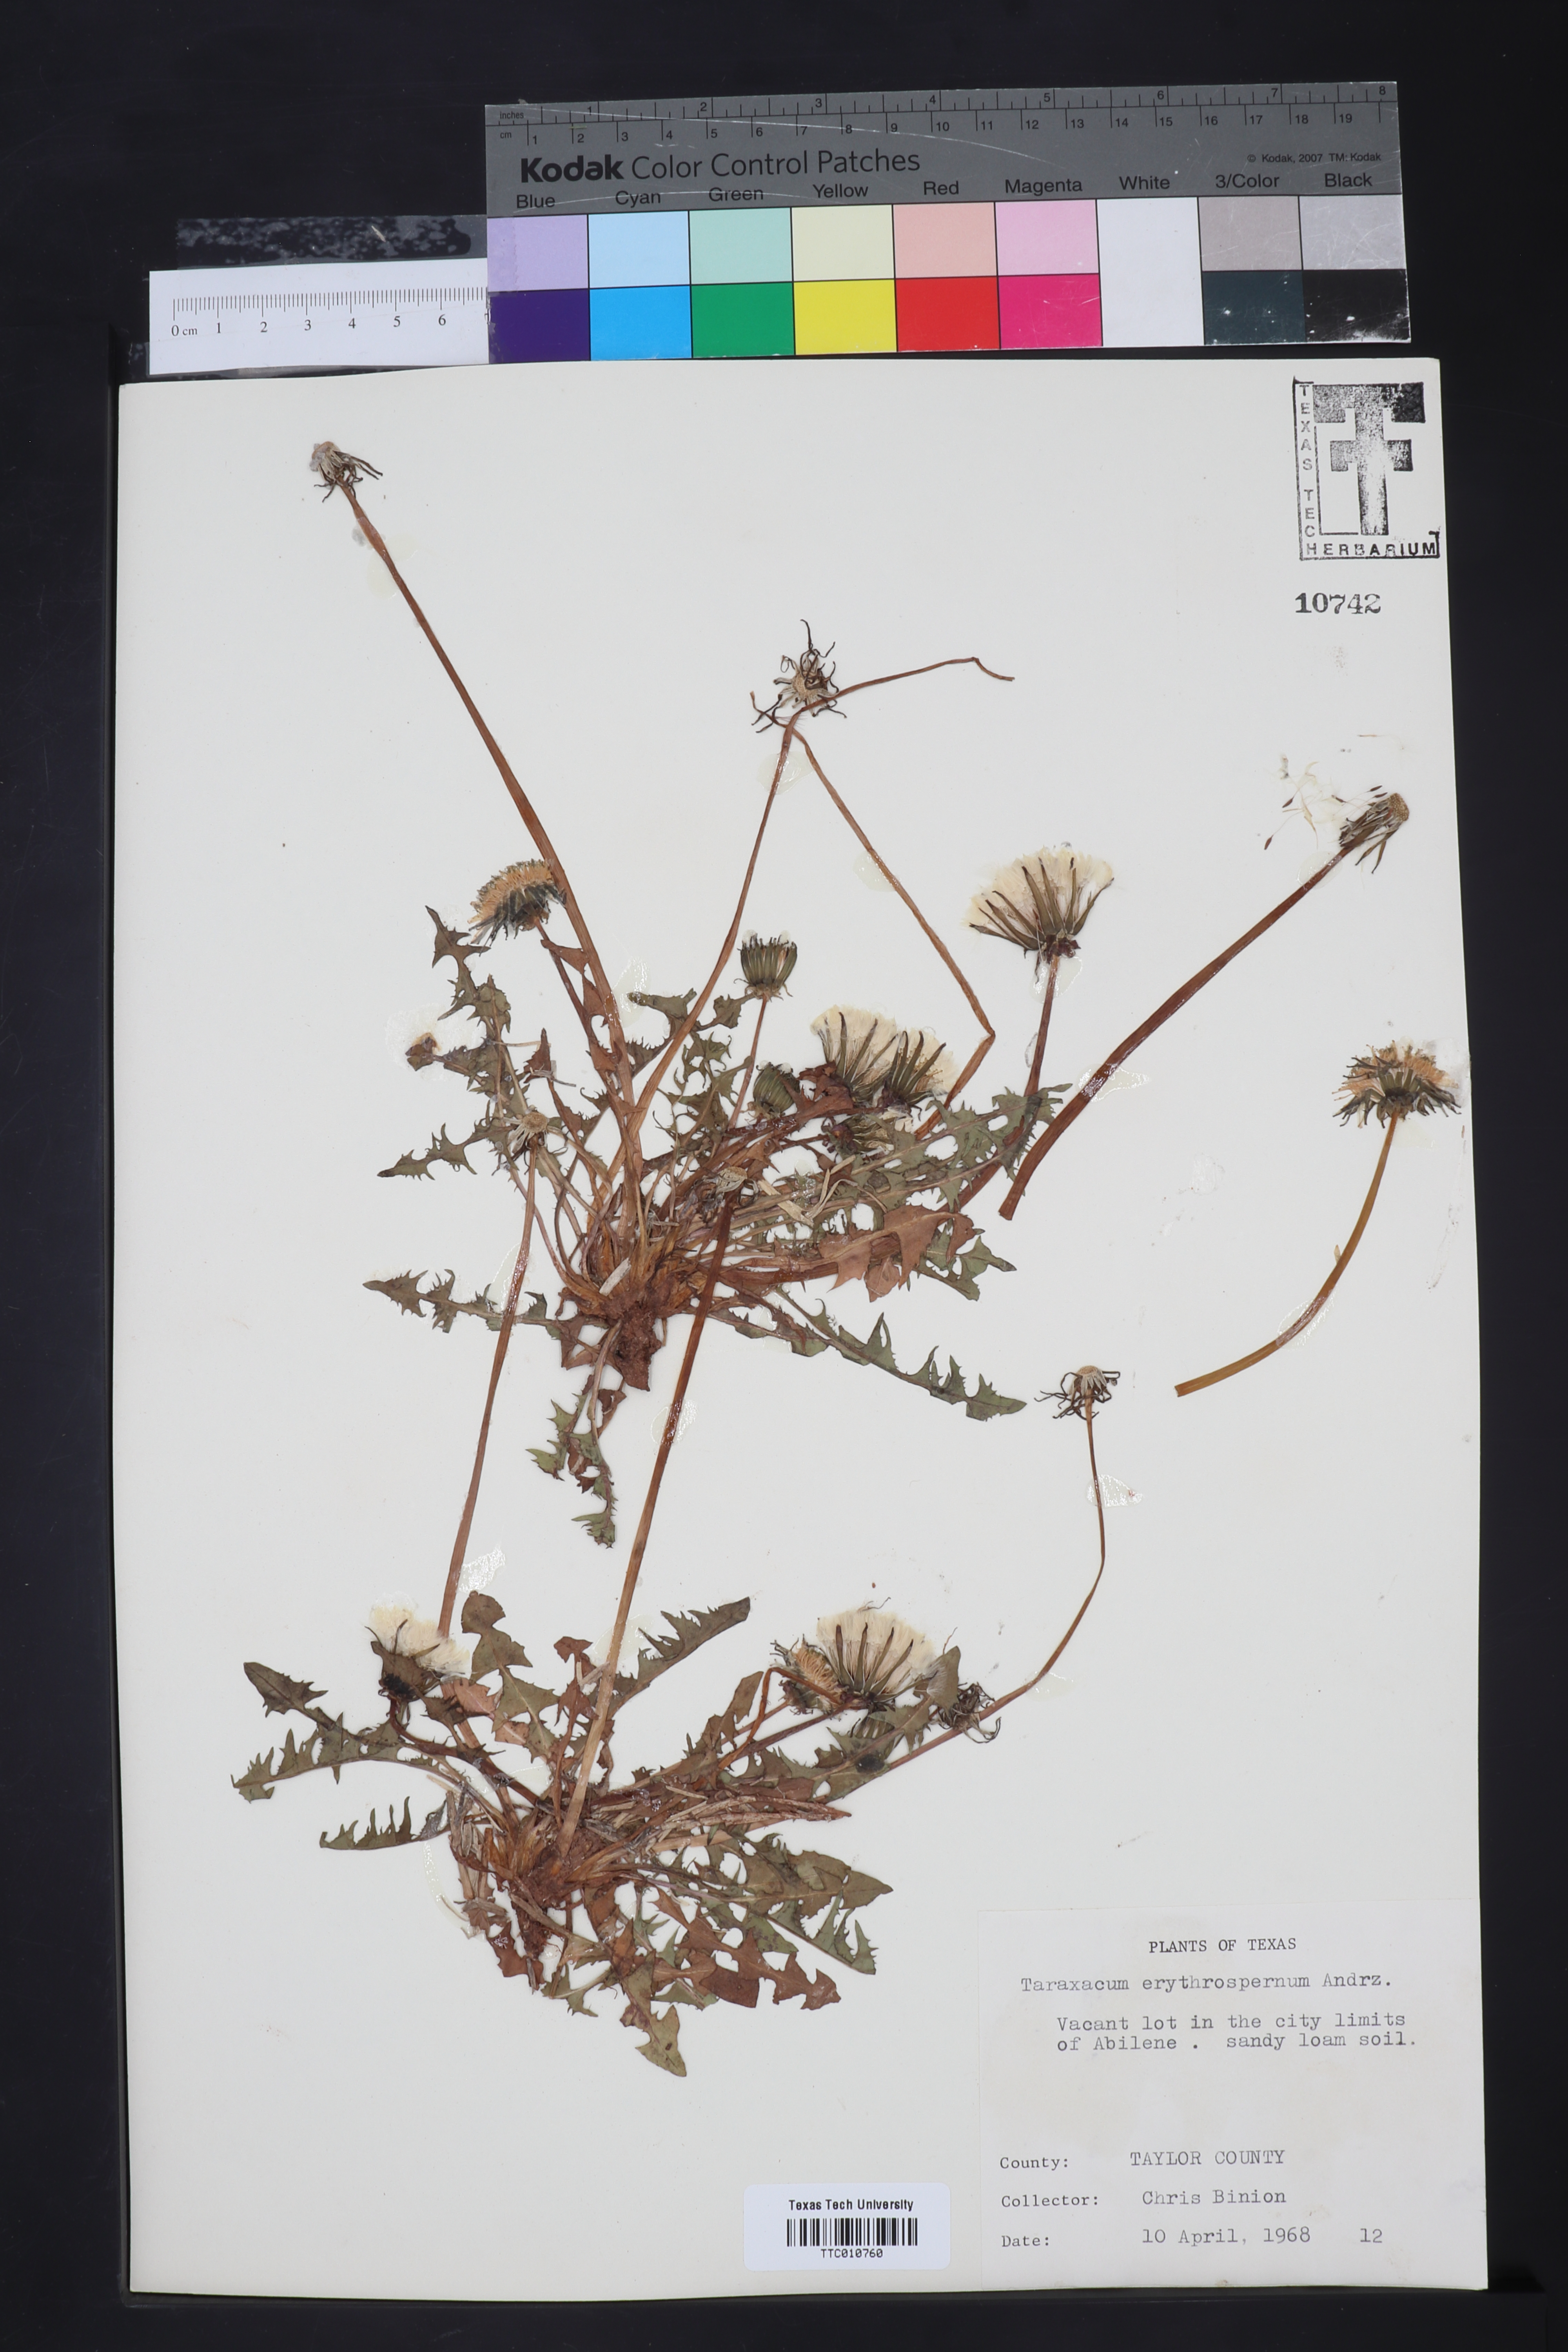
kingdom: Plantae
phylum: Tracheophyta
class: Magnoliopsida
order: Asterales
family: Asteraceae
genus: Taraxacum
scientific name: Taraxacum erythrospermum
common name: Rock dandelion
